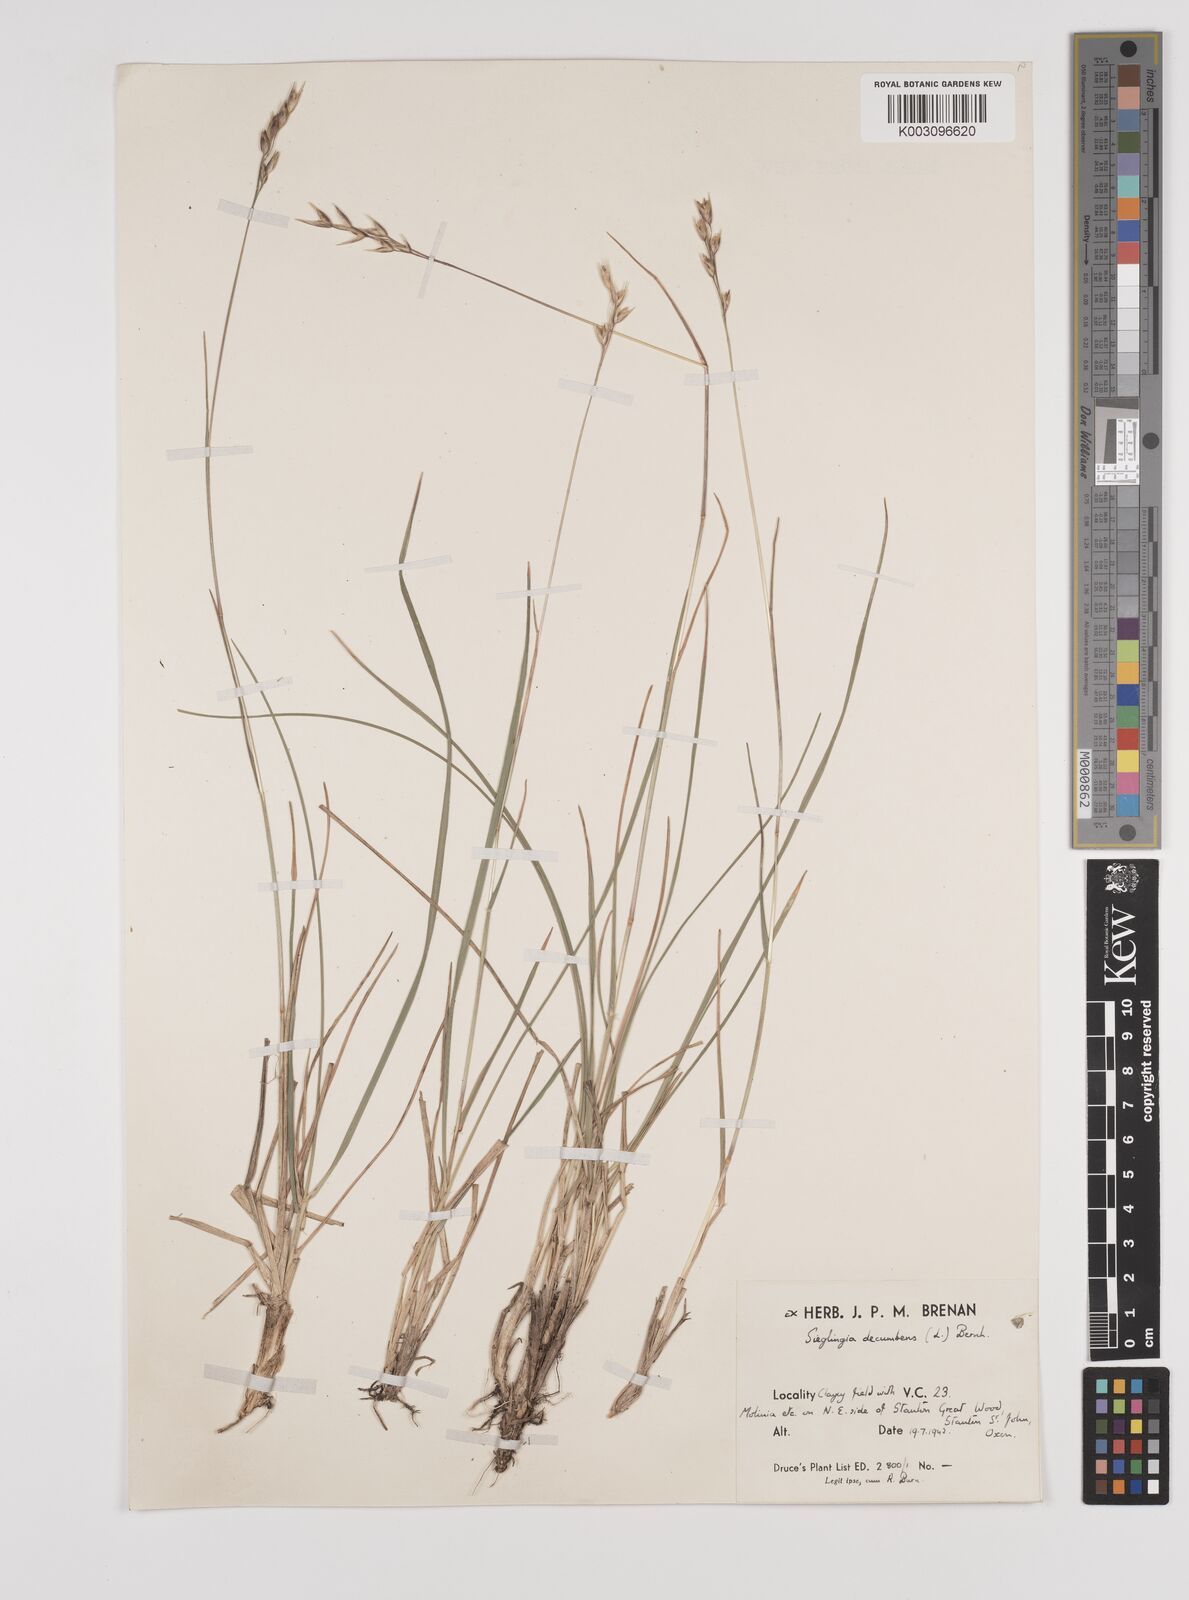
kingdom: Plantae
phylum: Tracheophyta
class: Liliopsida
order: Poales
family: Poaceae
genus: Danthonia
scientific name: Danthonia decumbens
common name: Common heathgrass
